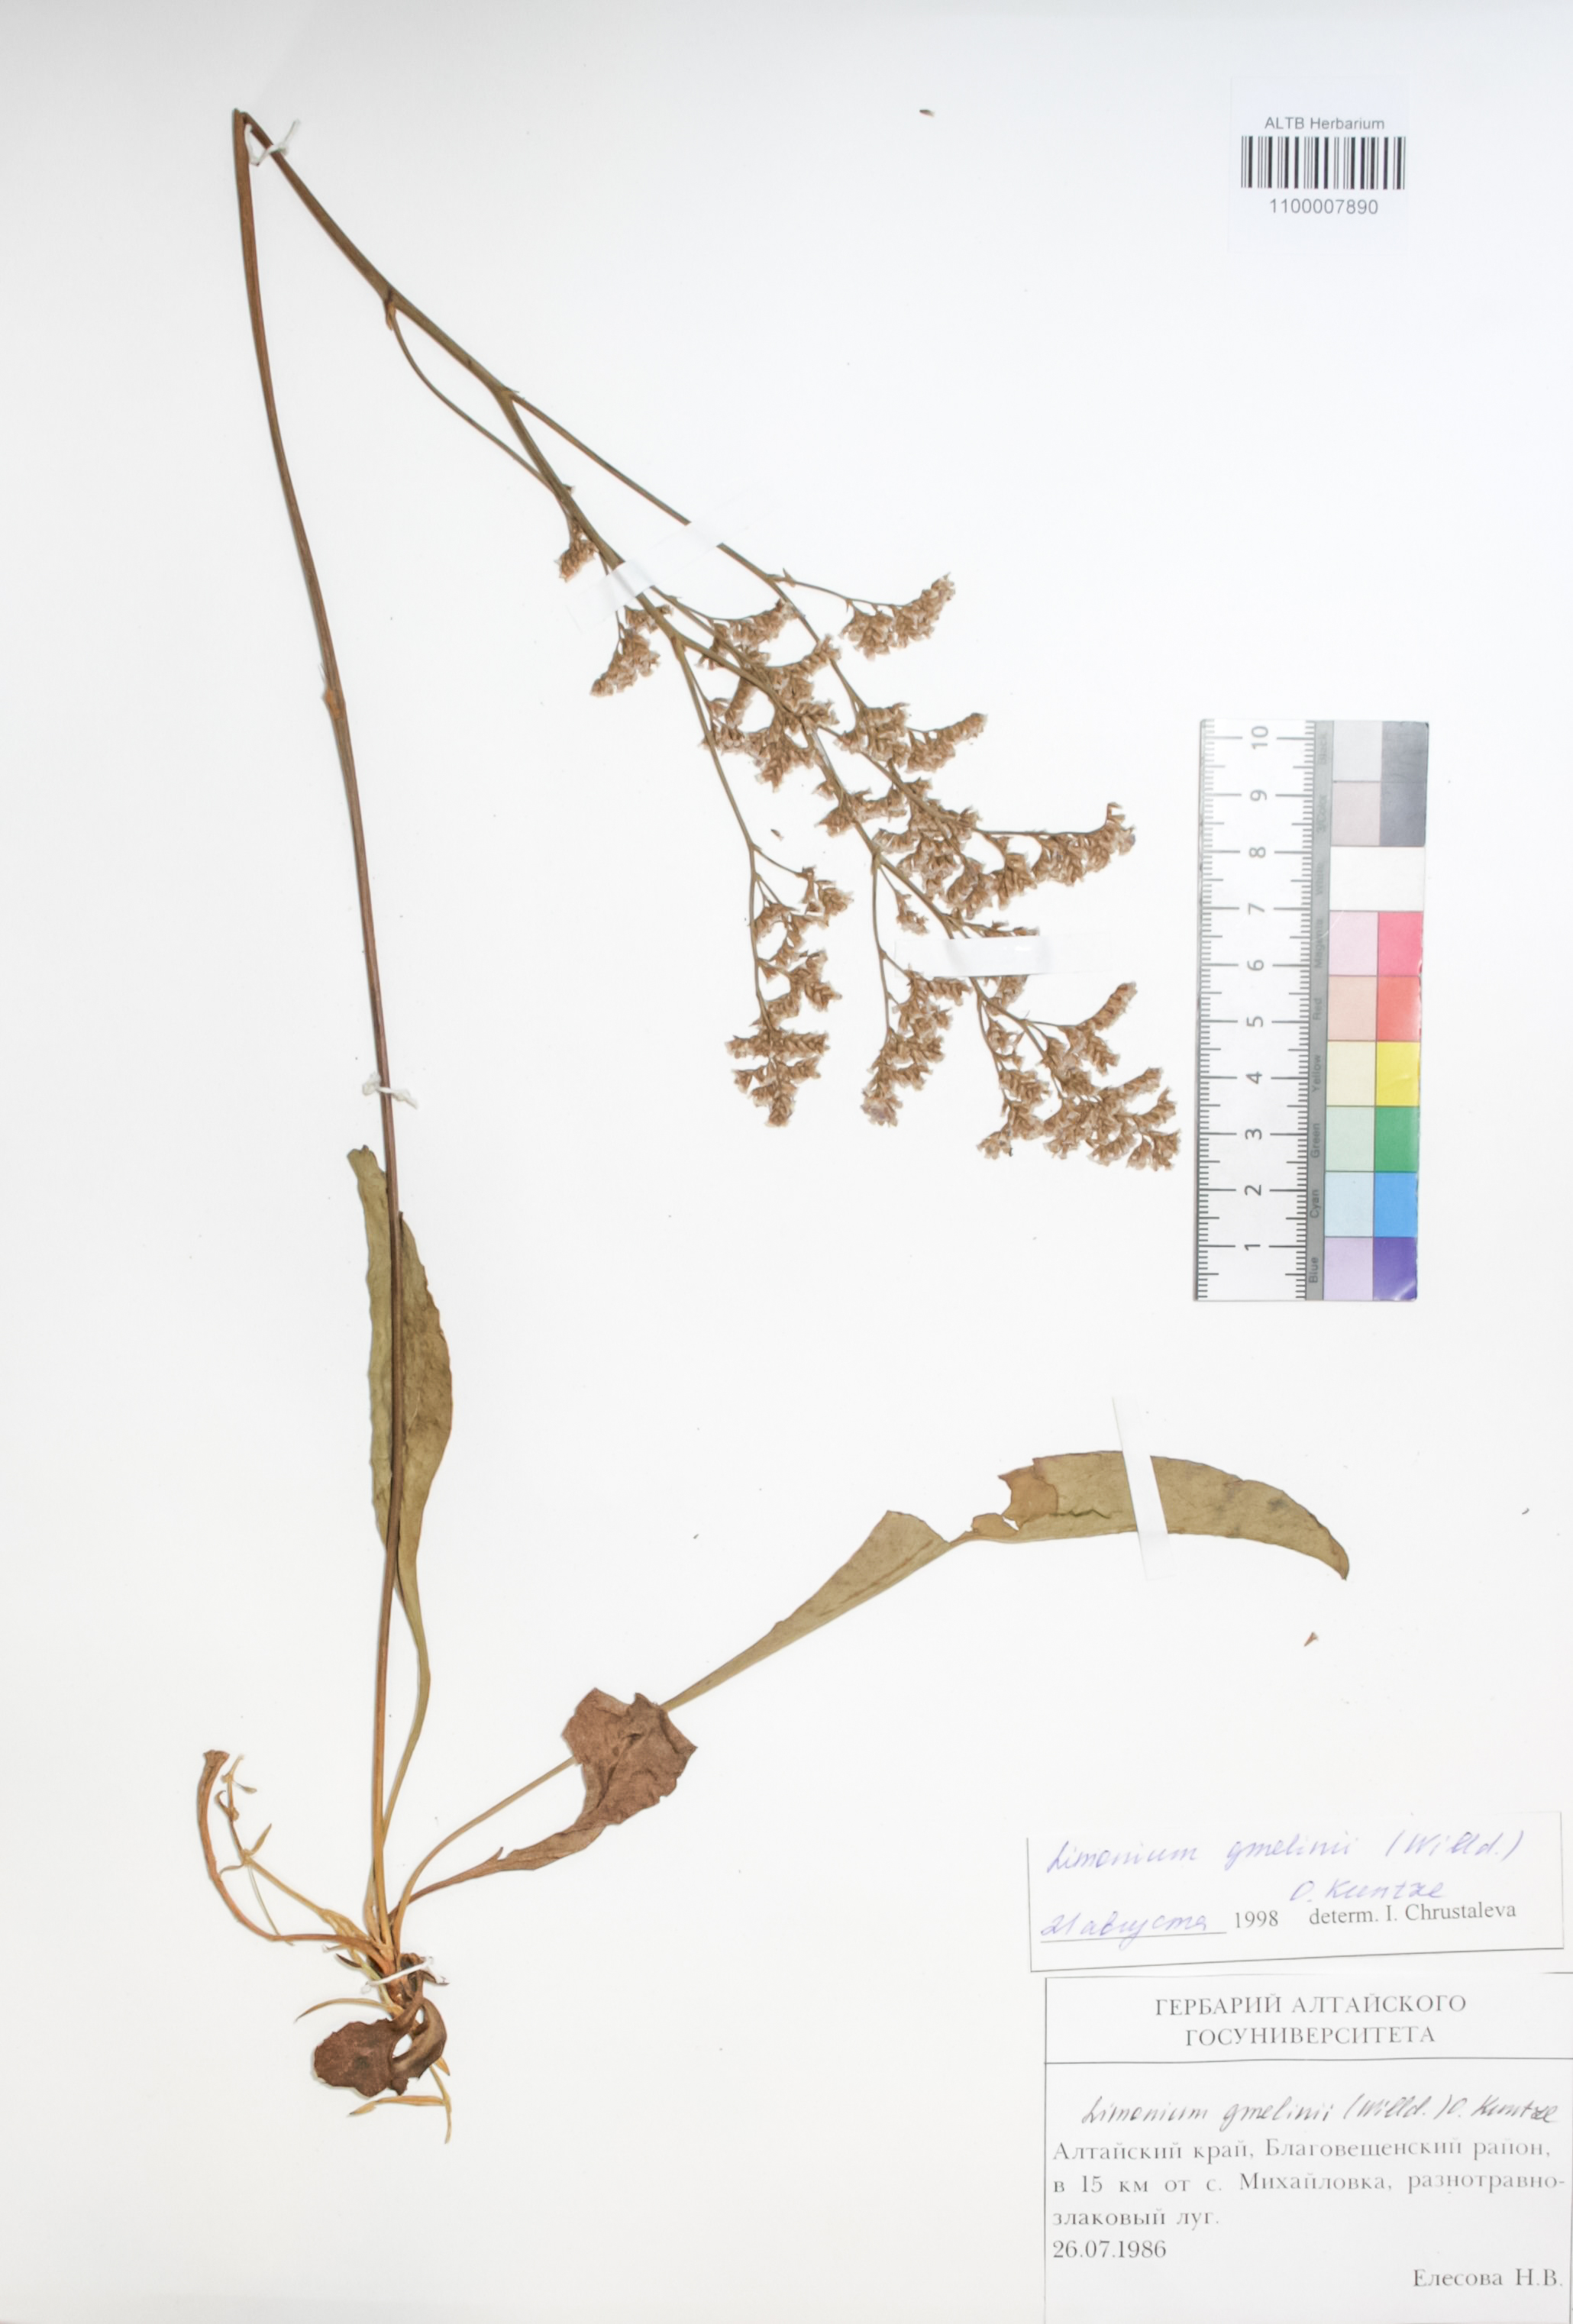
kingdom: Plantae
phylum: Tracheophyta
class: Magnoliopsida
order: Caryophyllales
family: Plumbaginaceae
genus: Limonium
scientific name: Limonium gmelini
